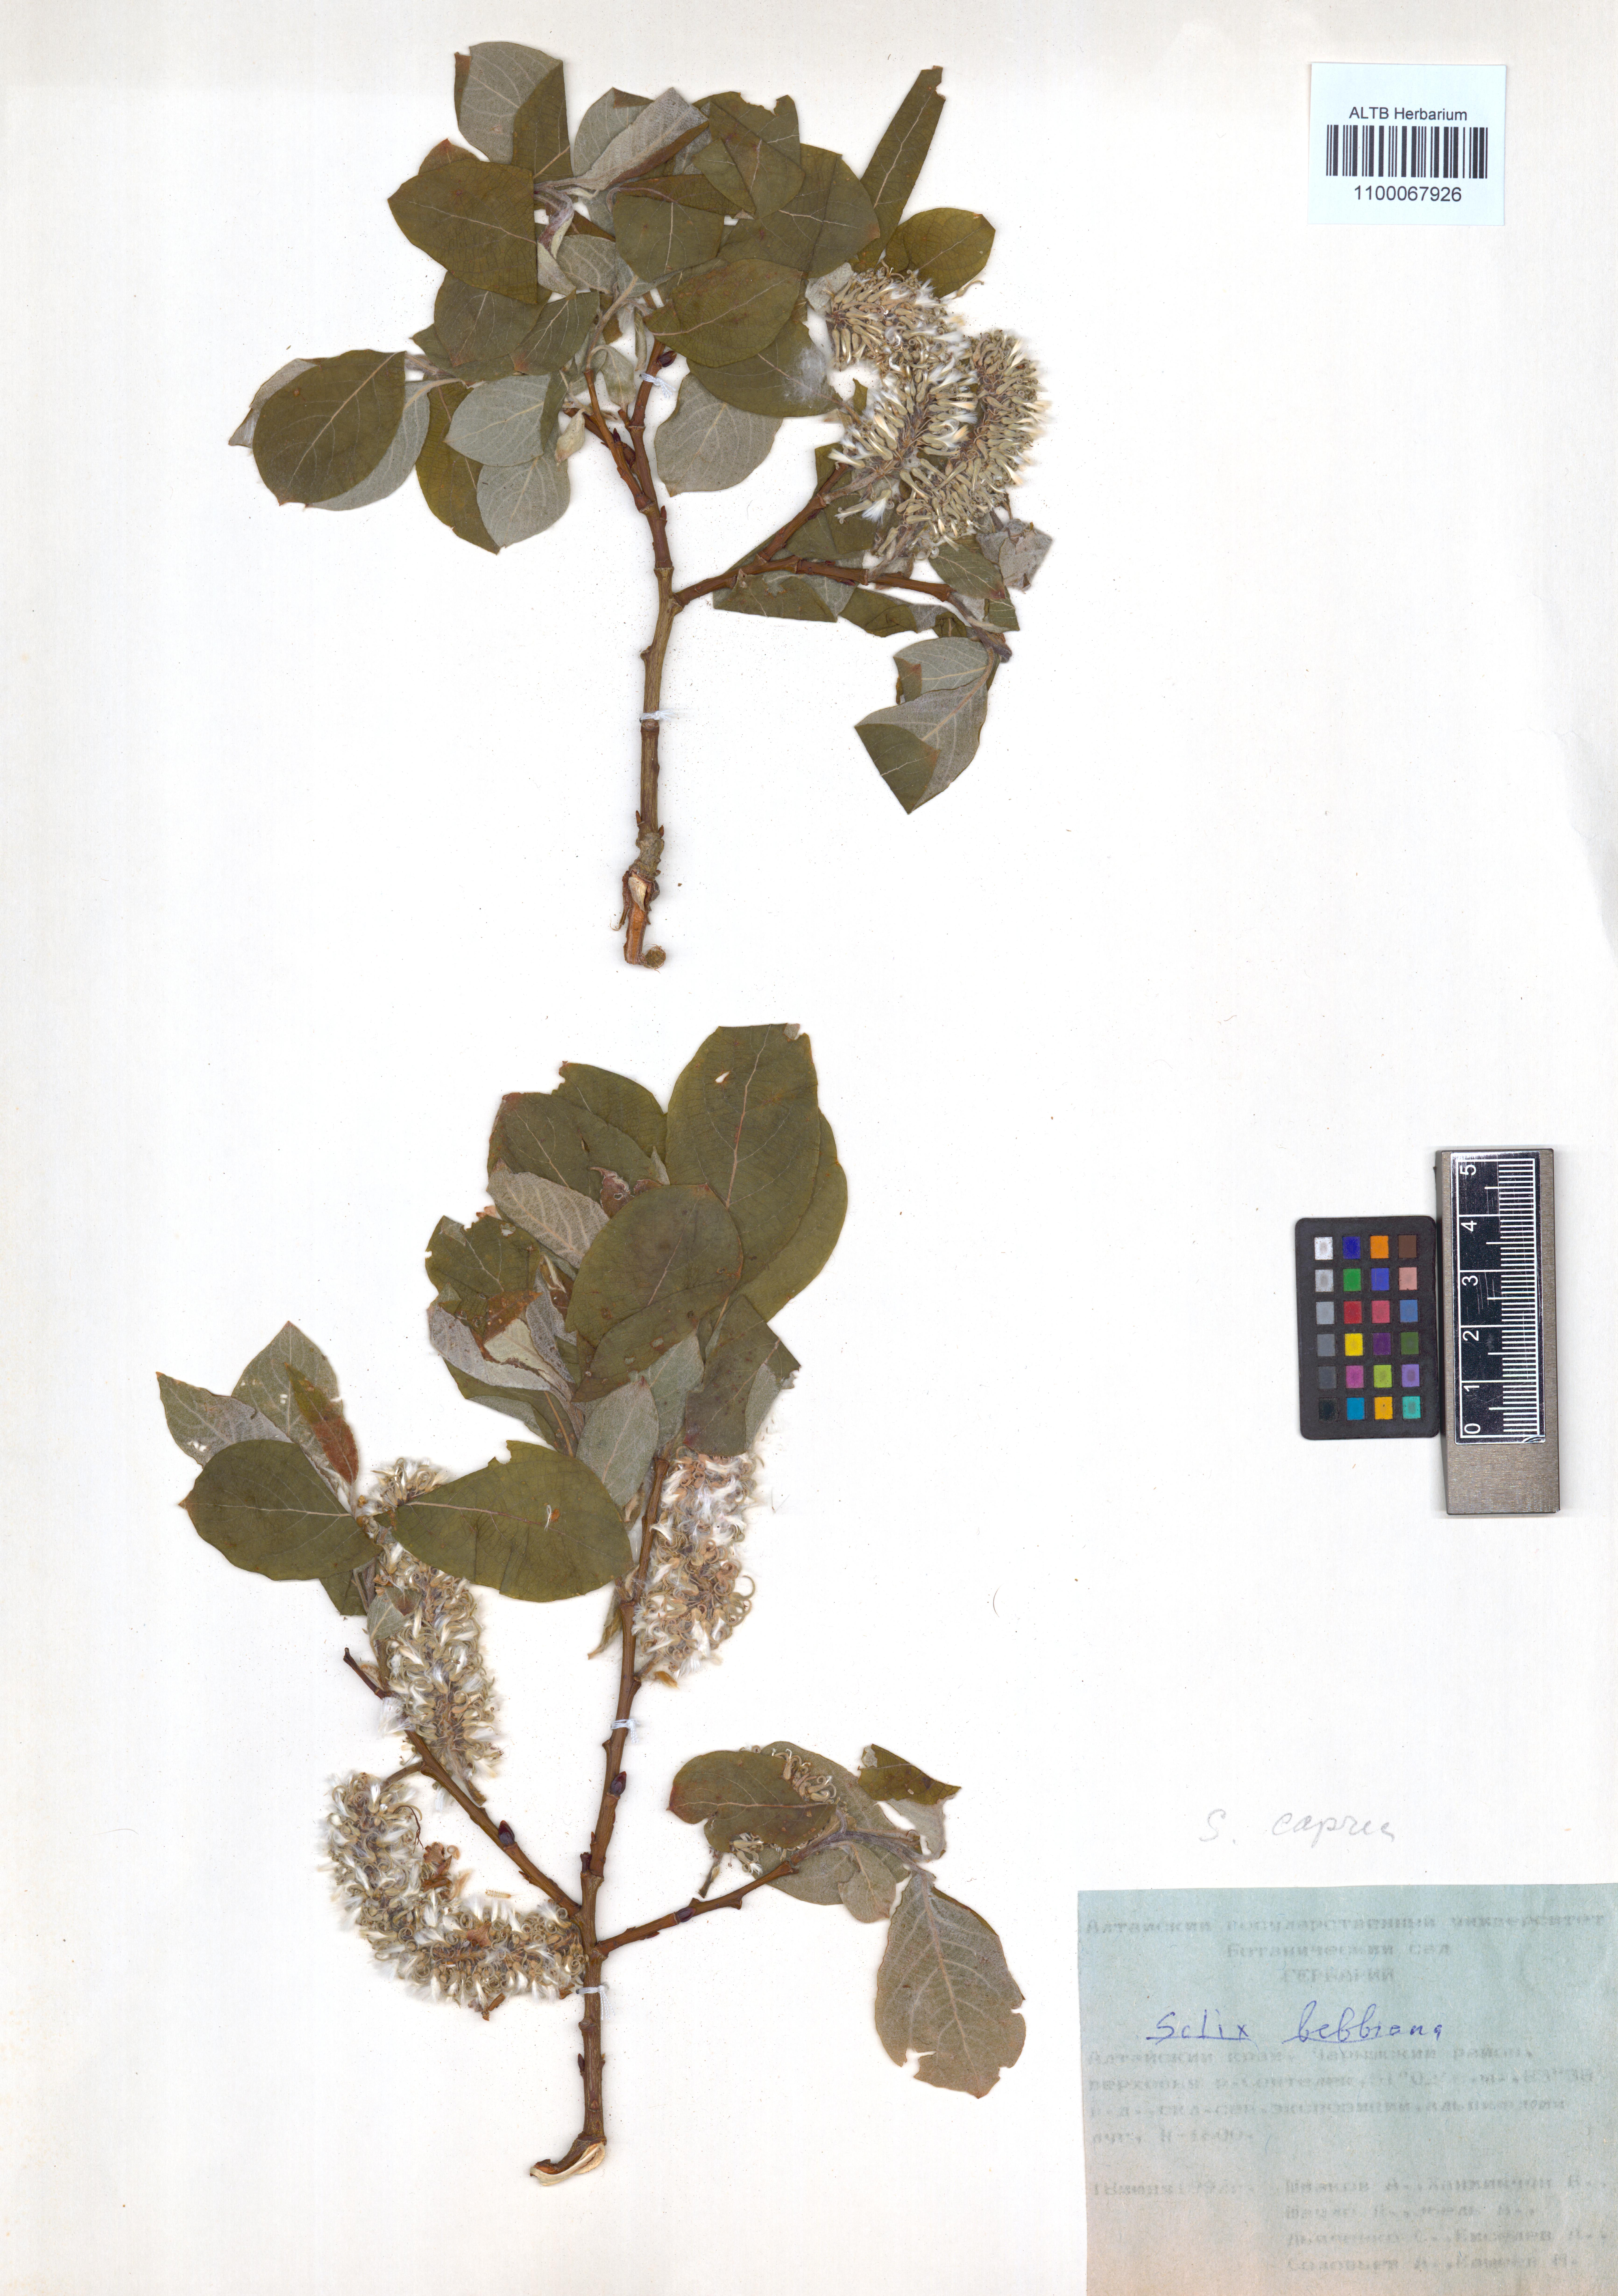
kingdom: Plantae
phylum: Tracheophyta
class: Magnoliopsida
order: Malpighiales
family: Salicaceae
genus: Salix
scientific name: Salix bebbiana
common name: Bebb's willow
